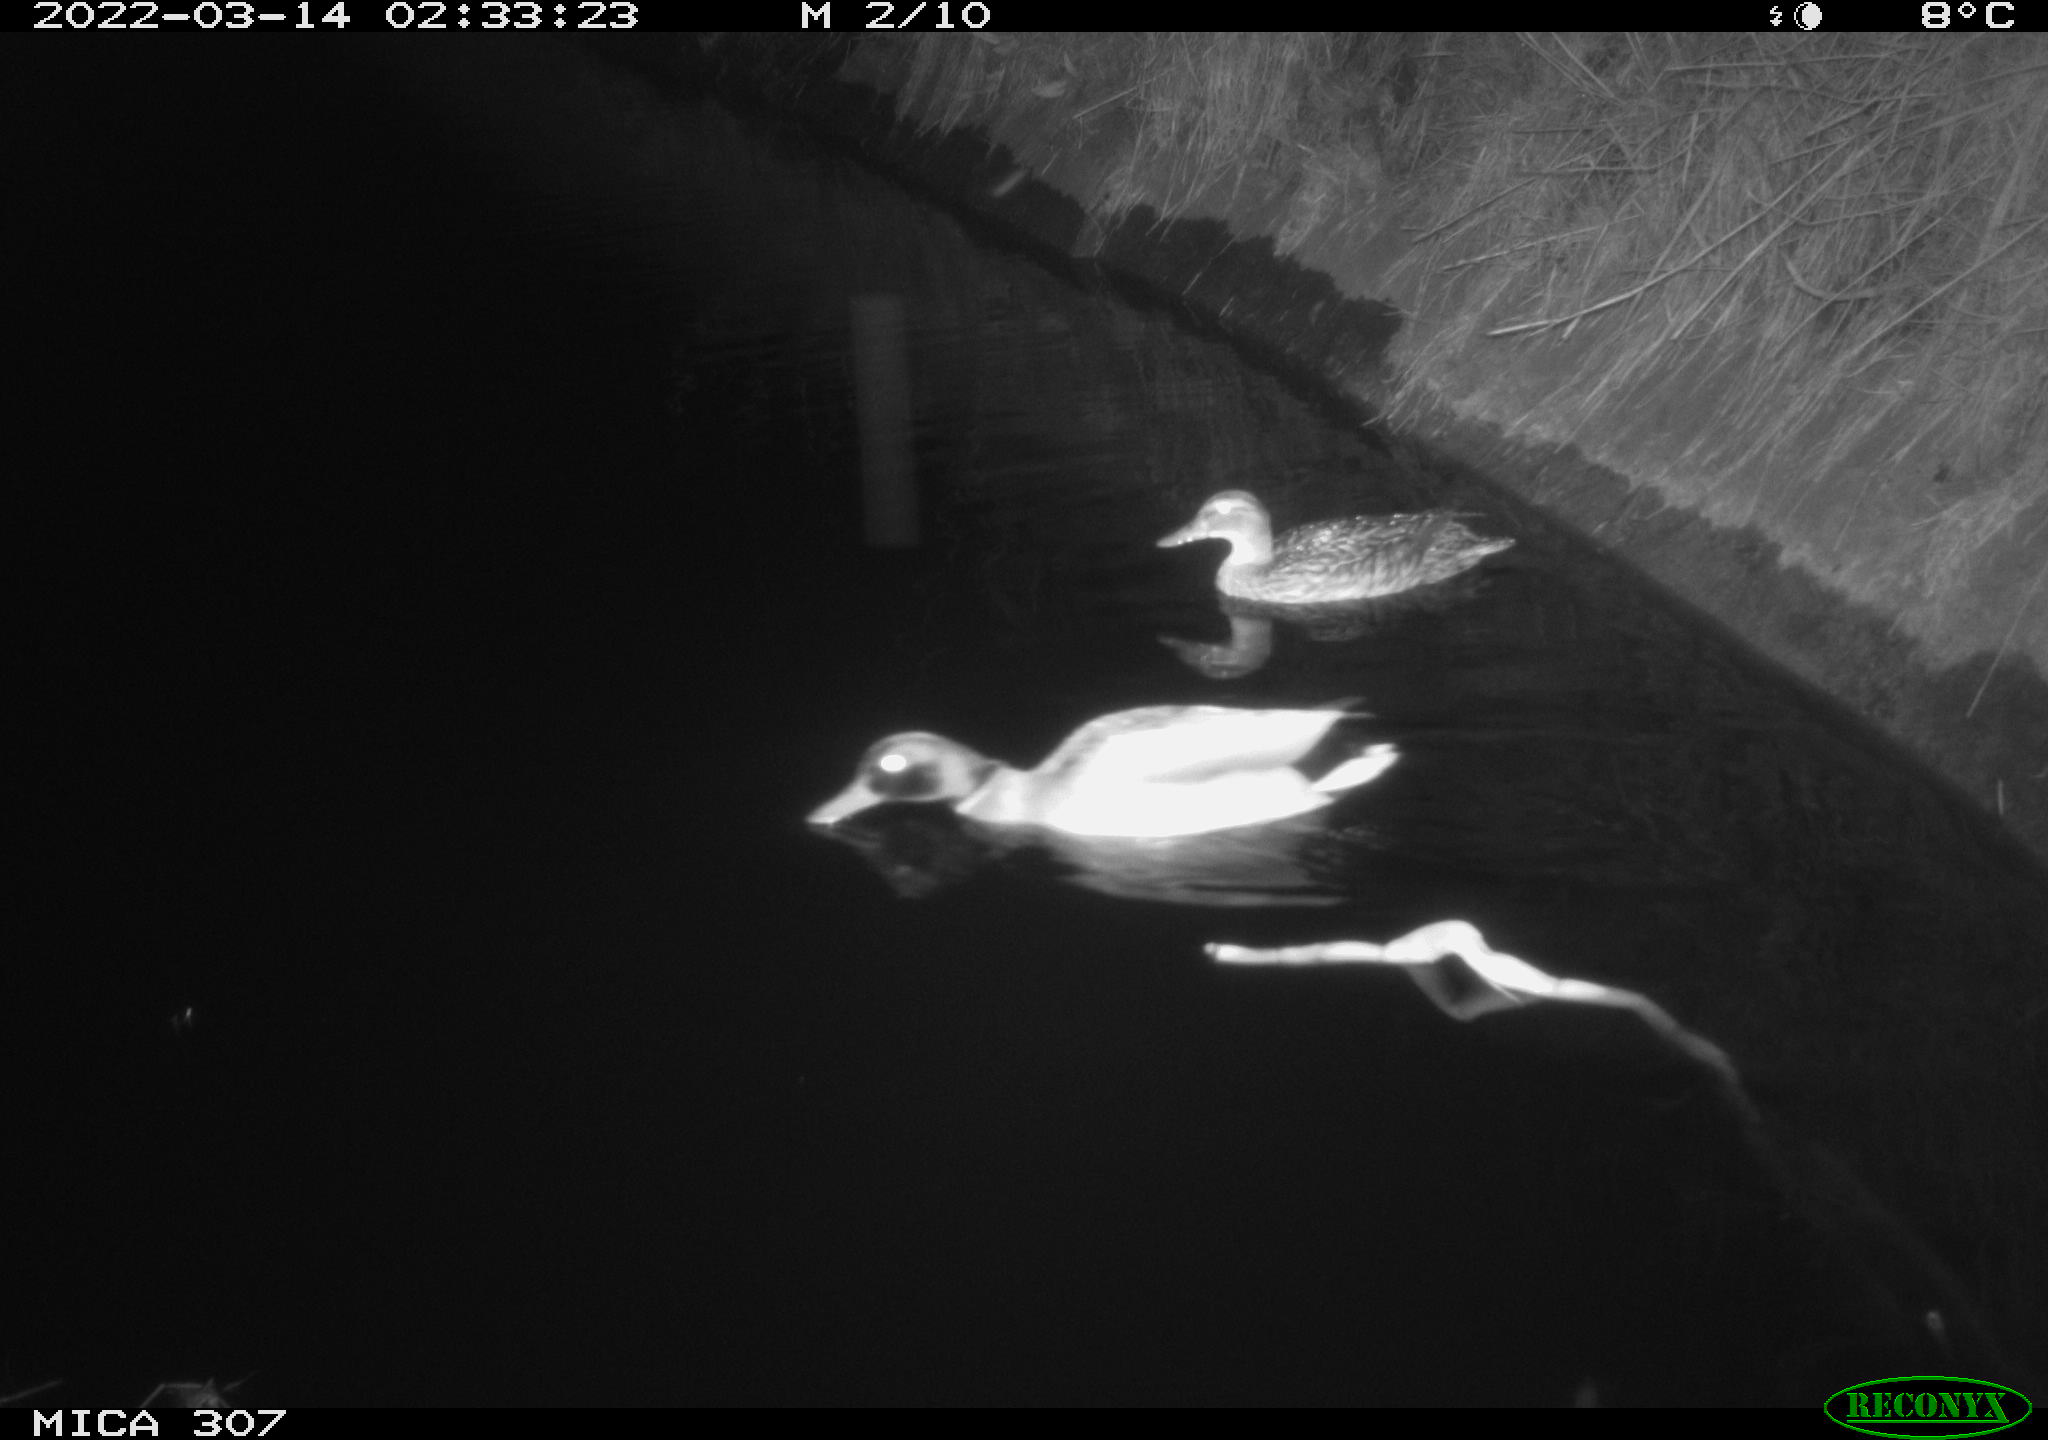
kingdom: Animalia
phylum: Chordata
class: Aves
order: Anseriformes
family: Anatidae
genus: Anas
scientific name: Anas platyrhynchos
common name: Mallard
